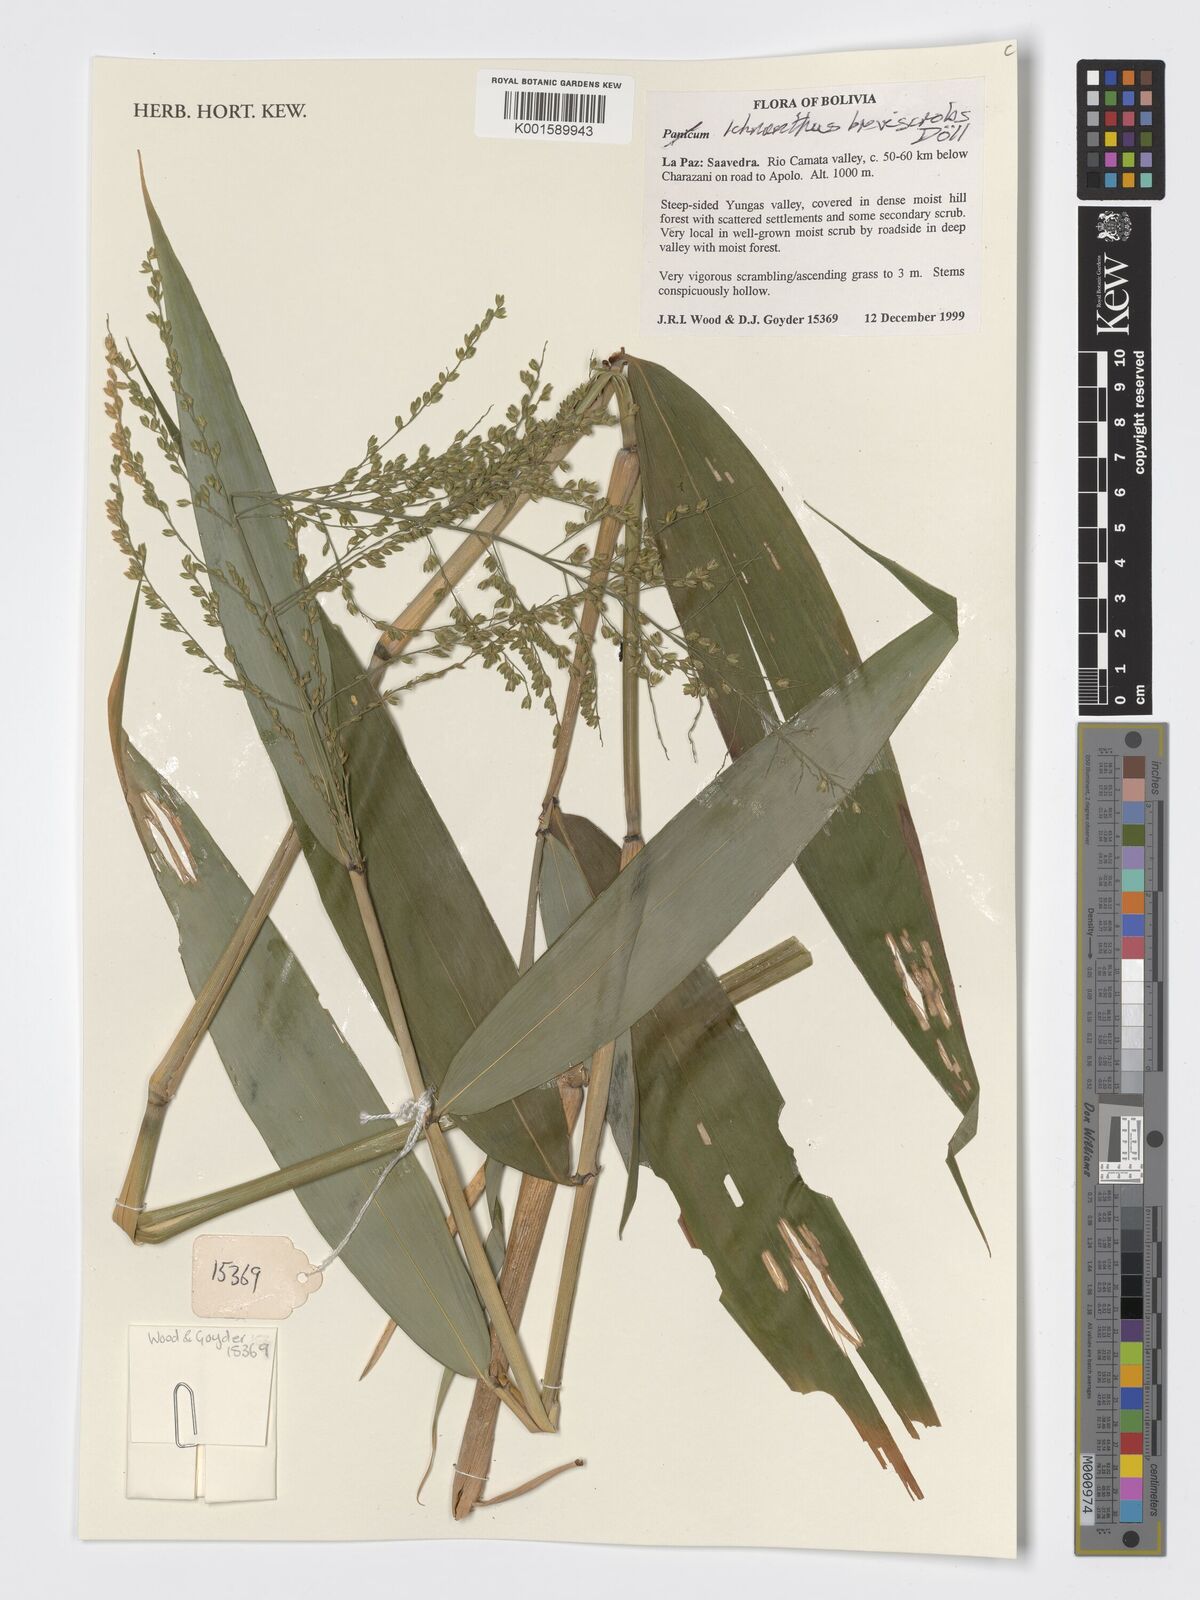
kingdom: Plantae
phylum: Tracheophyta
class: Liliopsida
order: Poales
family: Poaceae
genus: Ichnanthus
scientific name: Ichnanthus breviscrobs
